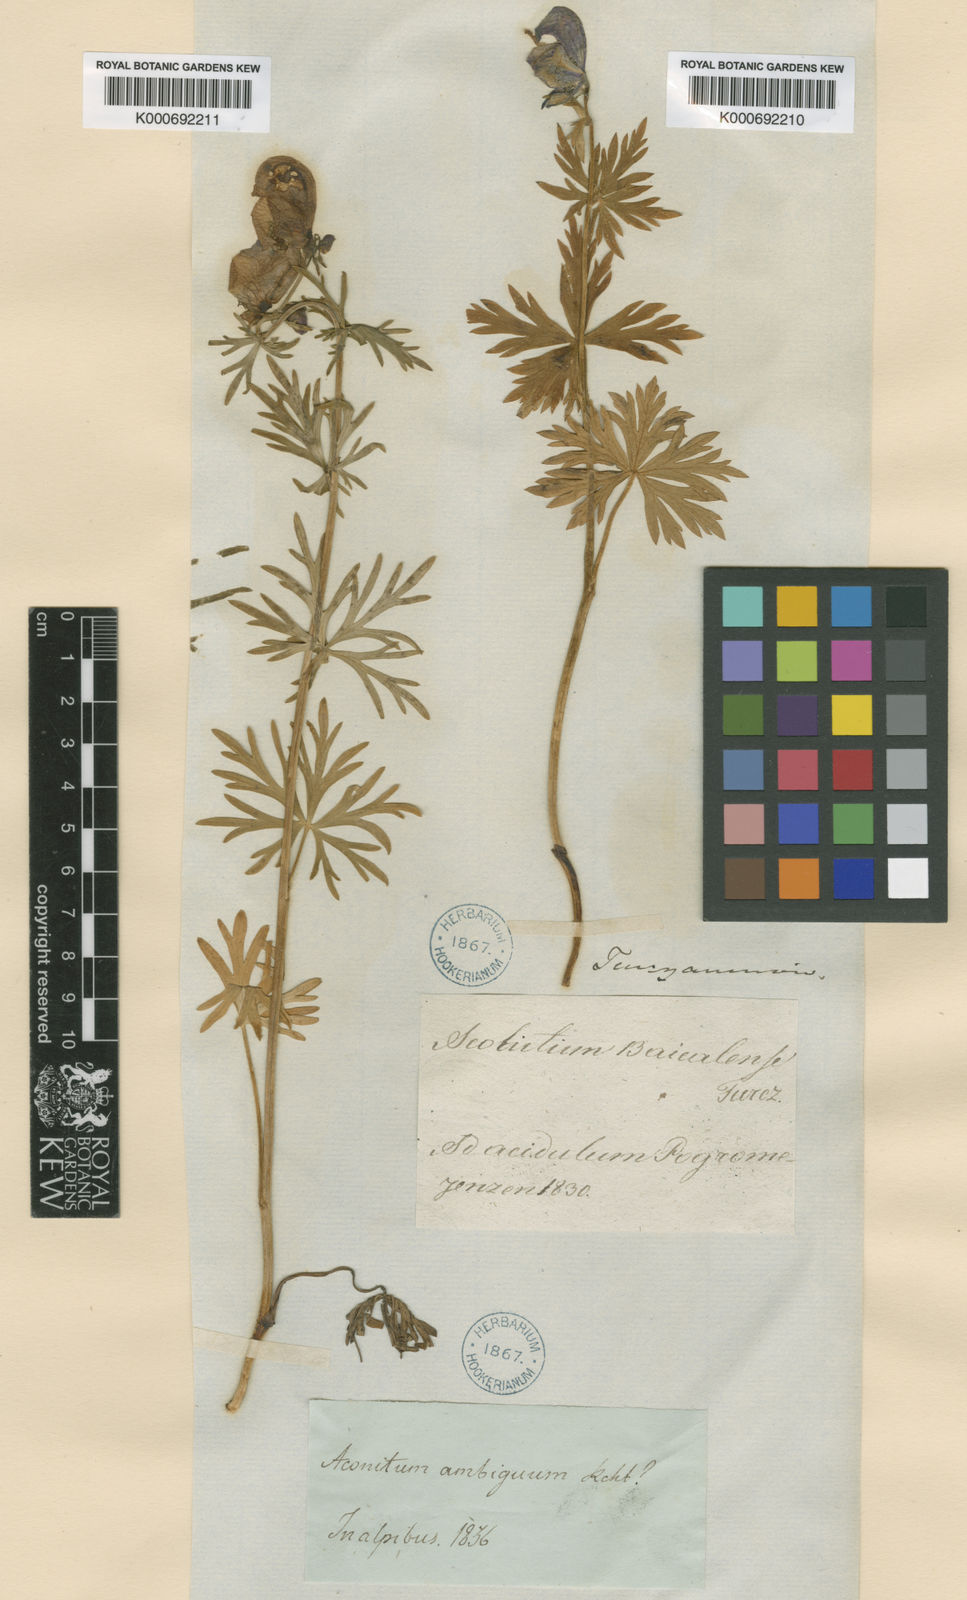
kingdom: Plantae
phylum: Tracheophyta
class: Magnoliopsida
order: Ranunculales
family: Ranunculaceae
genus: Aconitum
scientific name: Aconitum ambiguum
